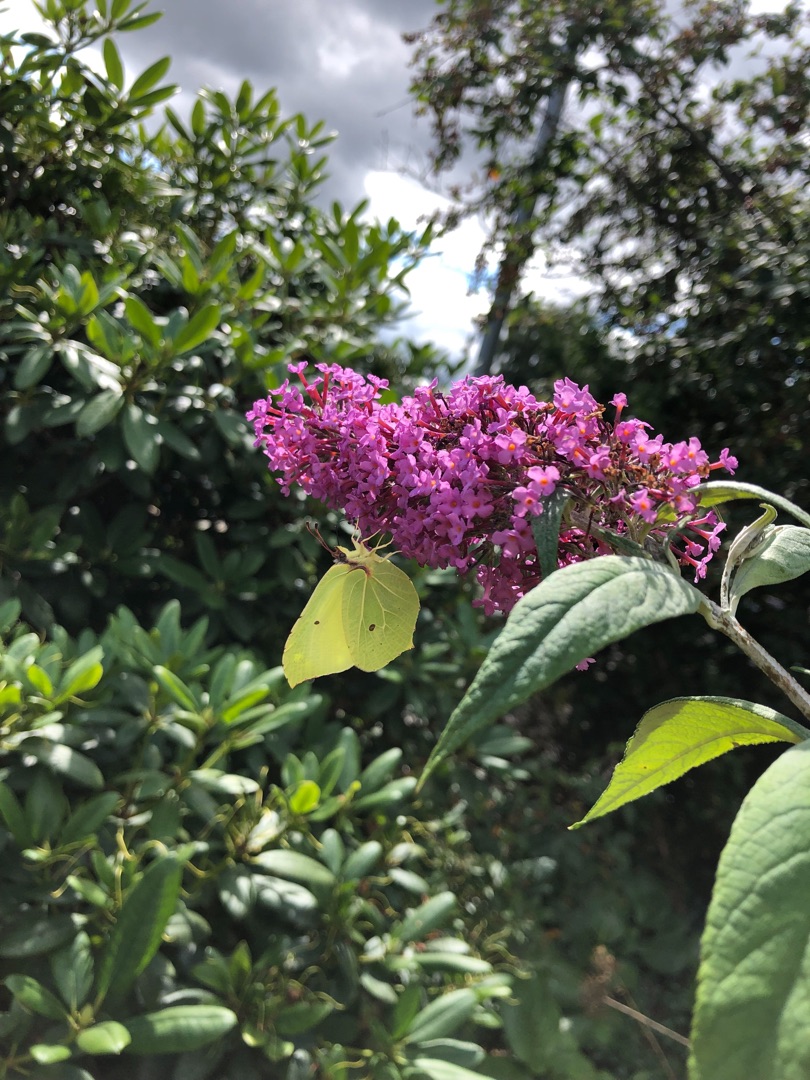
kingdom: Animalia
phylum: Arthropoda
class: Insecta
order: Lepidoptera
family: Pieridae
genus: Gonepteryx
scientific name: Gonepteryx rhamni
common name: Citronsommerfugl
